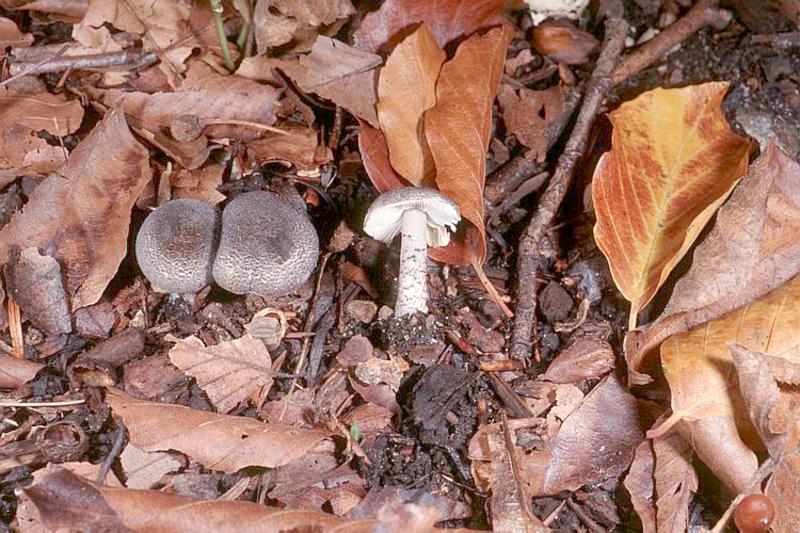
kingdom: Fungi
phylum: Basidiomycota
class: Agaricomycetes
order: Agaricales
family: Agaricaceae
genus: Lepiota
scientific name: Lepiota pseudofelina
